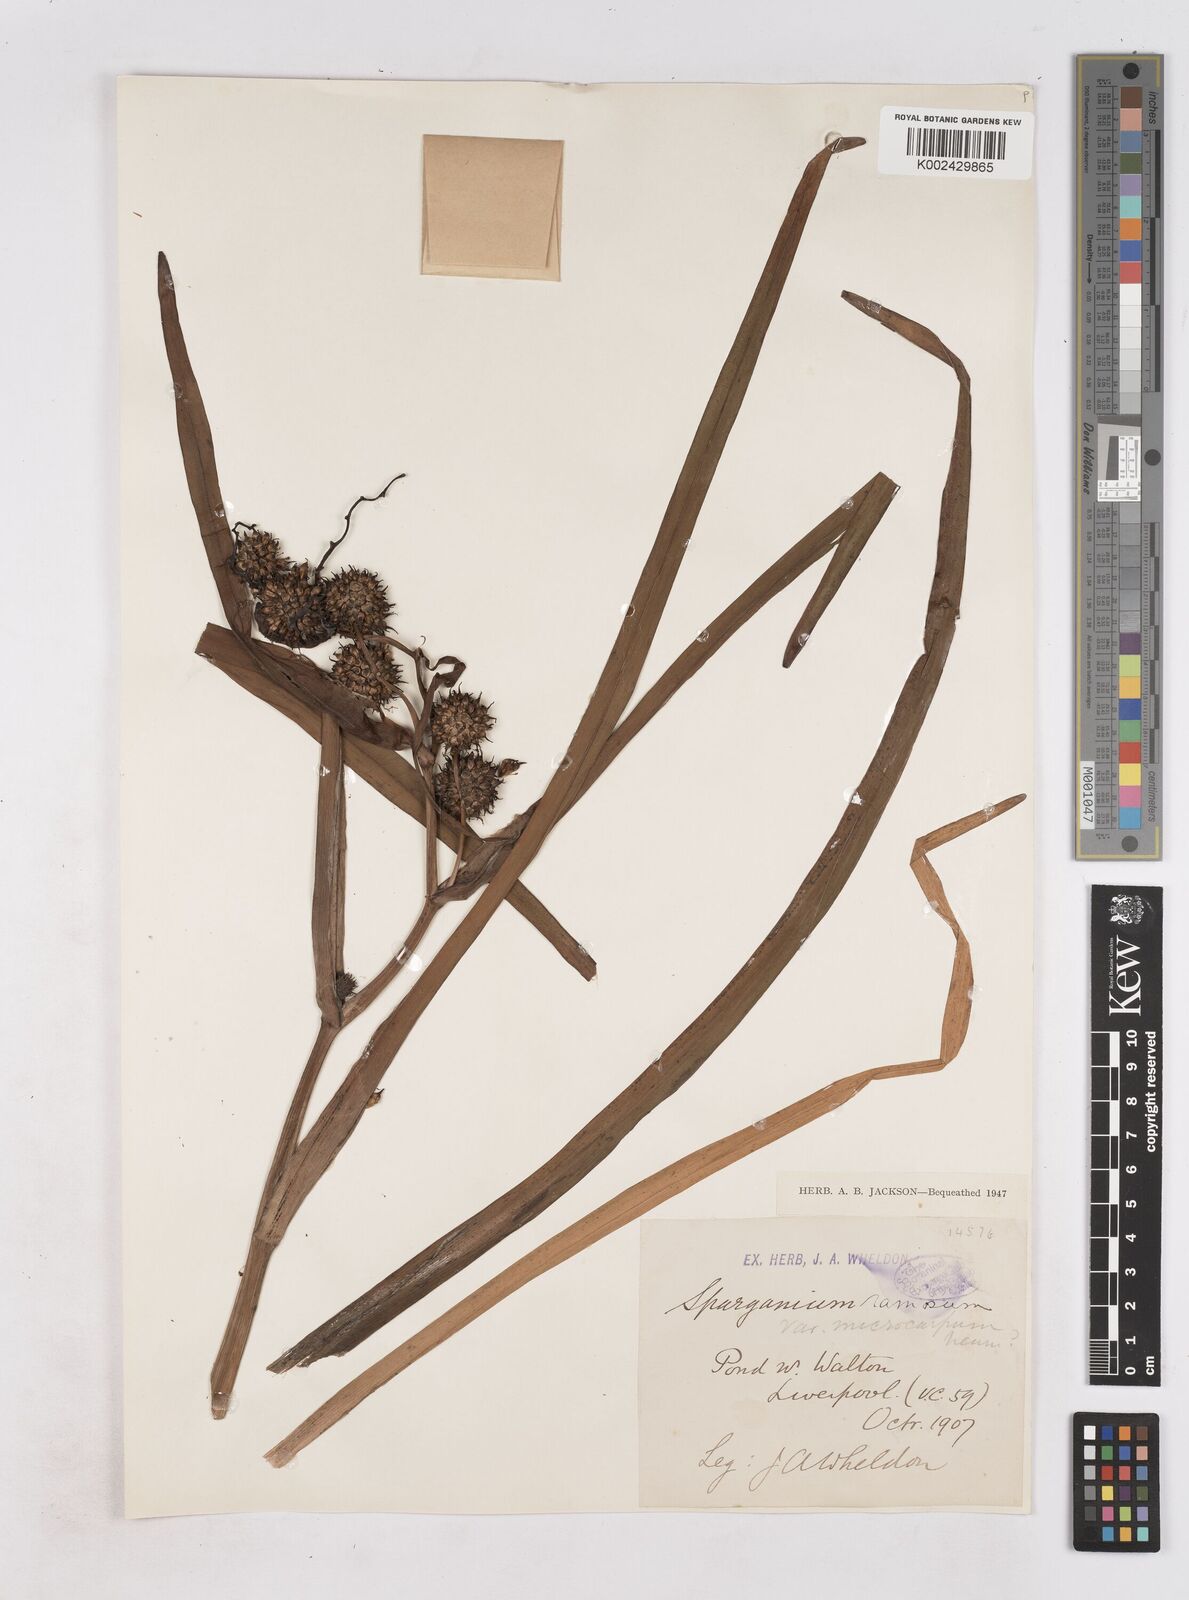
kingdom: Plantae
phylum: Tracheophyta
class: Liliopsida
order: Poales
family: Typhaceae
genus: Sparganium
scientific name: Sparganium erectum
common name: Branched bur-reed
